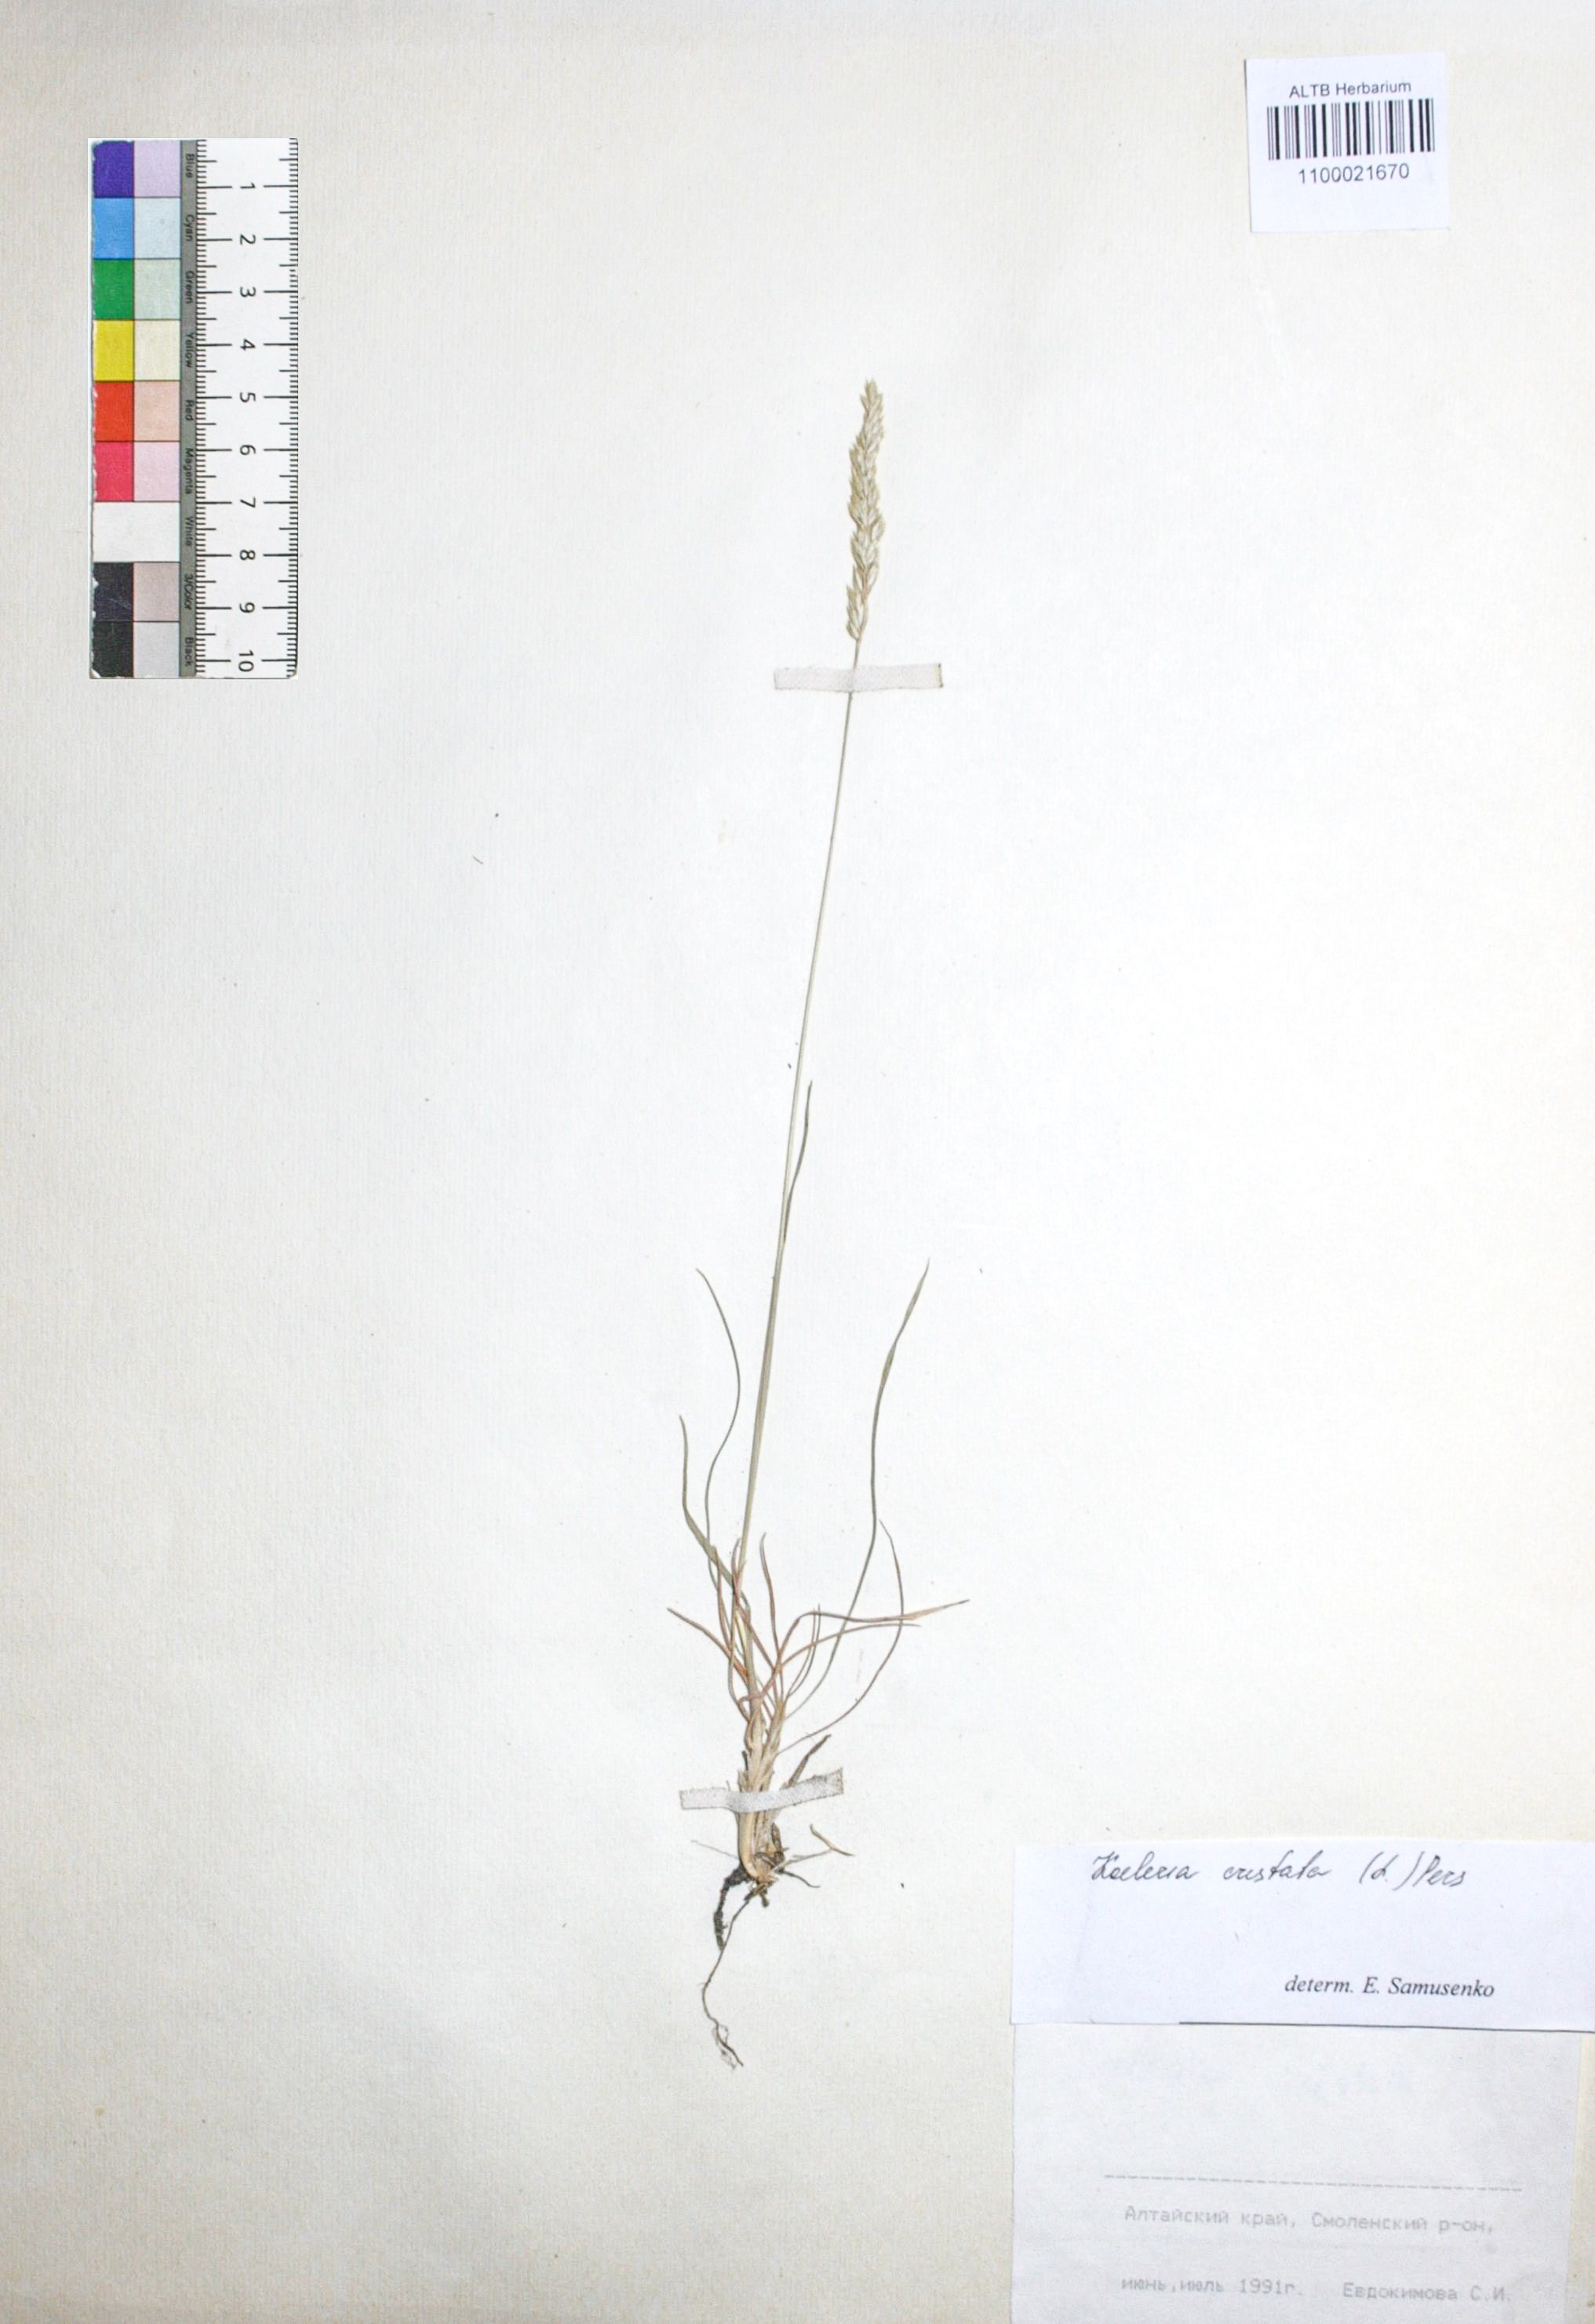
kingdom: Plantae
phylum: Tracheophyta
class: Liliopsida
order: Poales
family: Poaceae
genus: Koeleria
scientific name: Koeleria pyramidata
